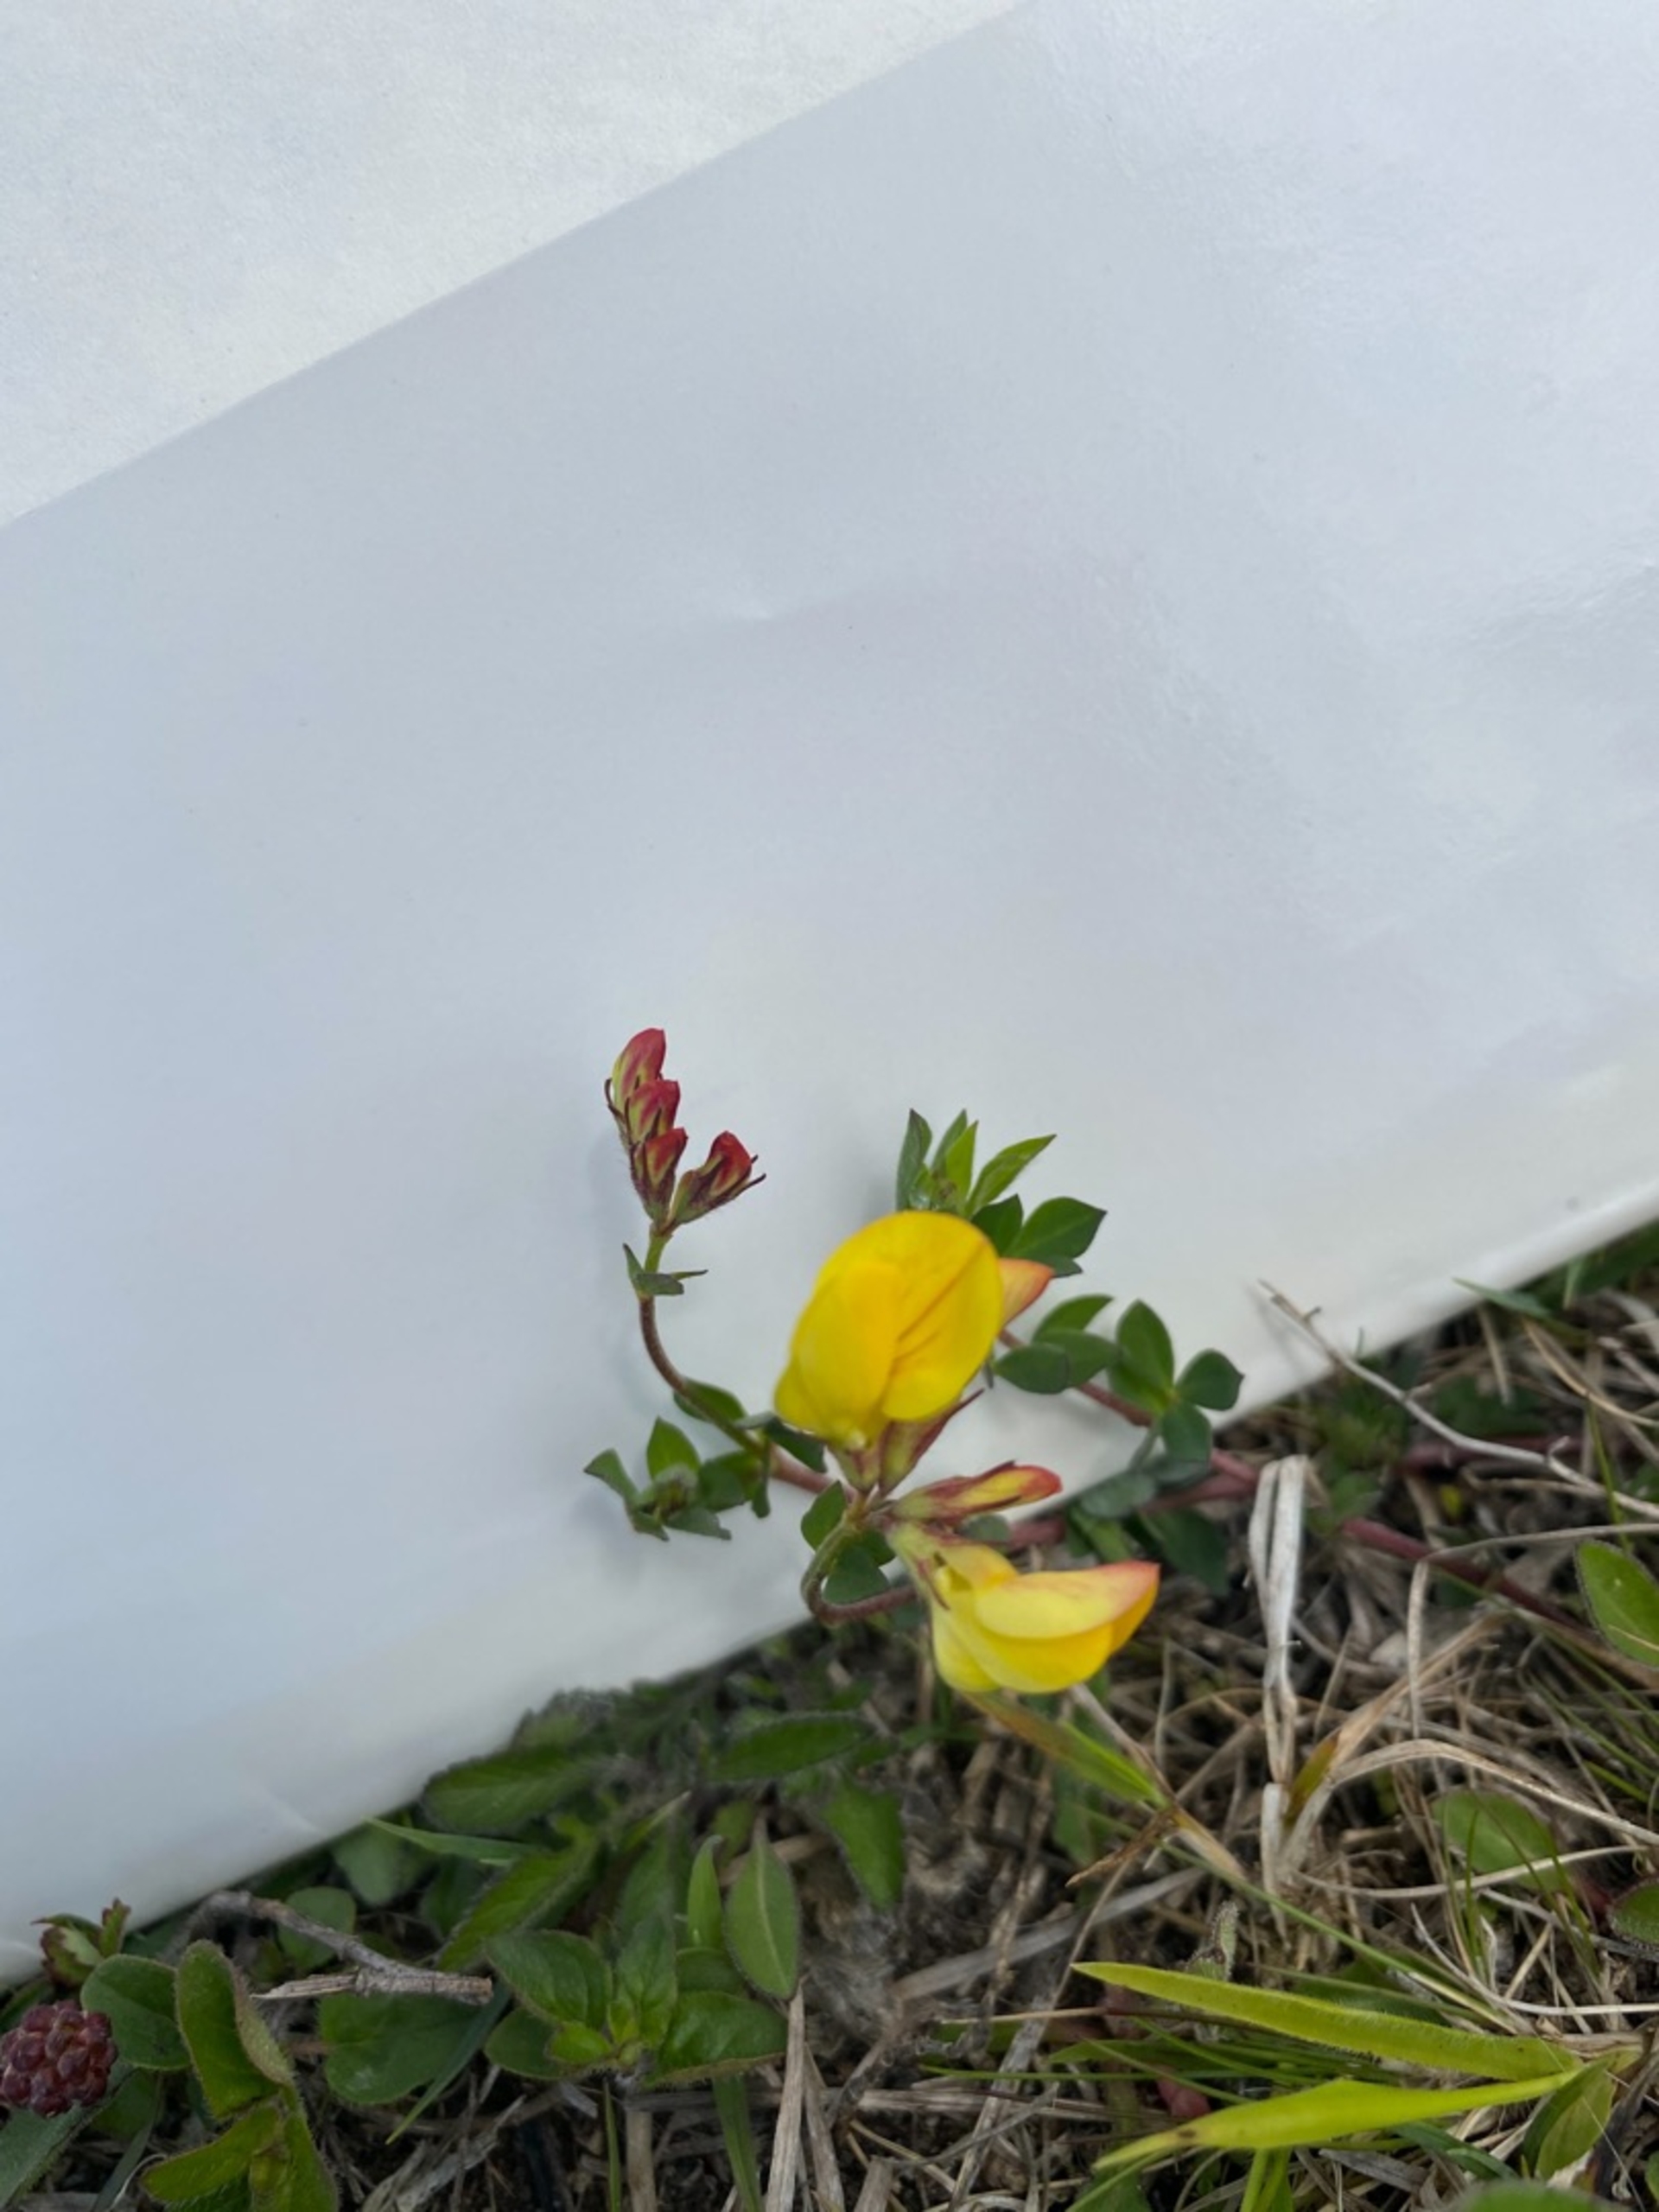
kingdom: Plantae
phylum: Tracheophyta
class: Magnoliopsida
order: Fabales
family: Fabaceae
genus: Lotus
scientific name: Lotus corniculatus
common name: Almindelig kællingetand
